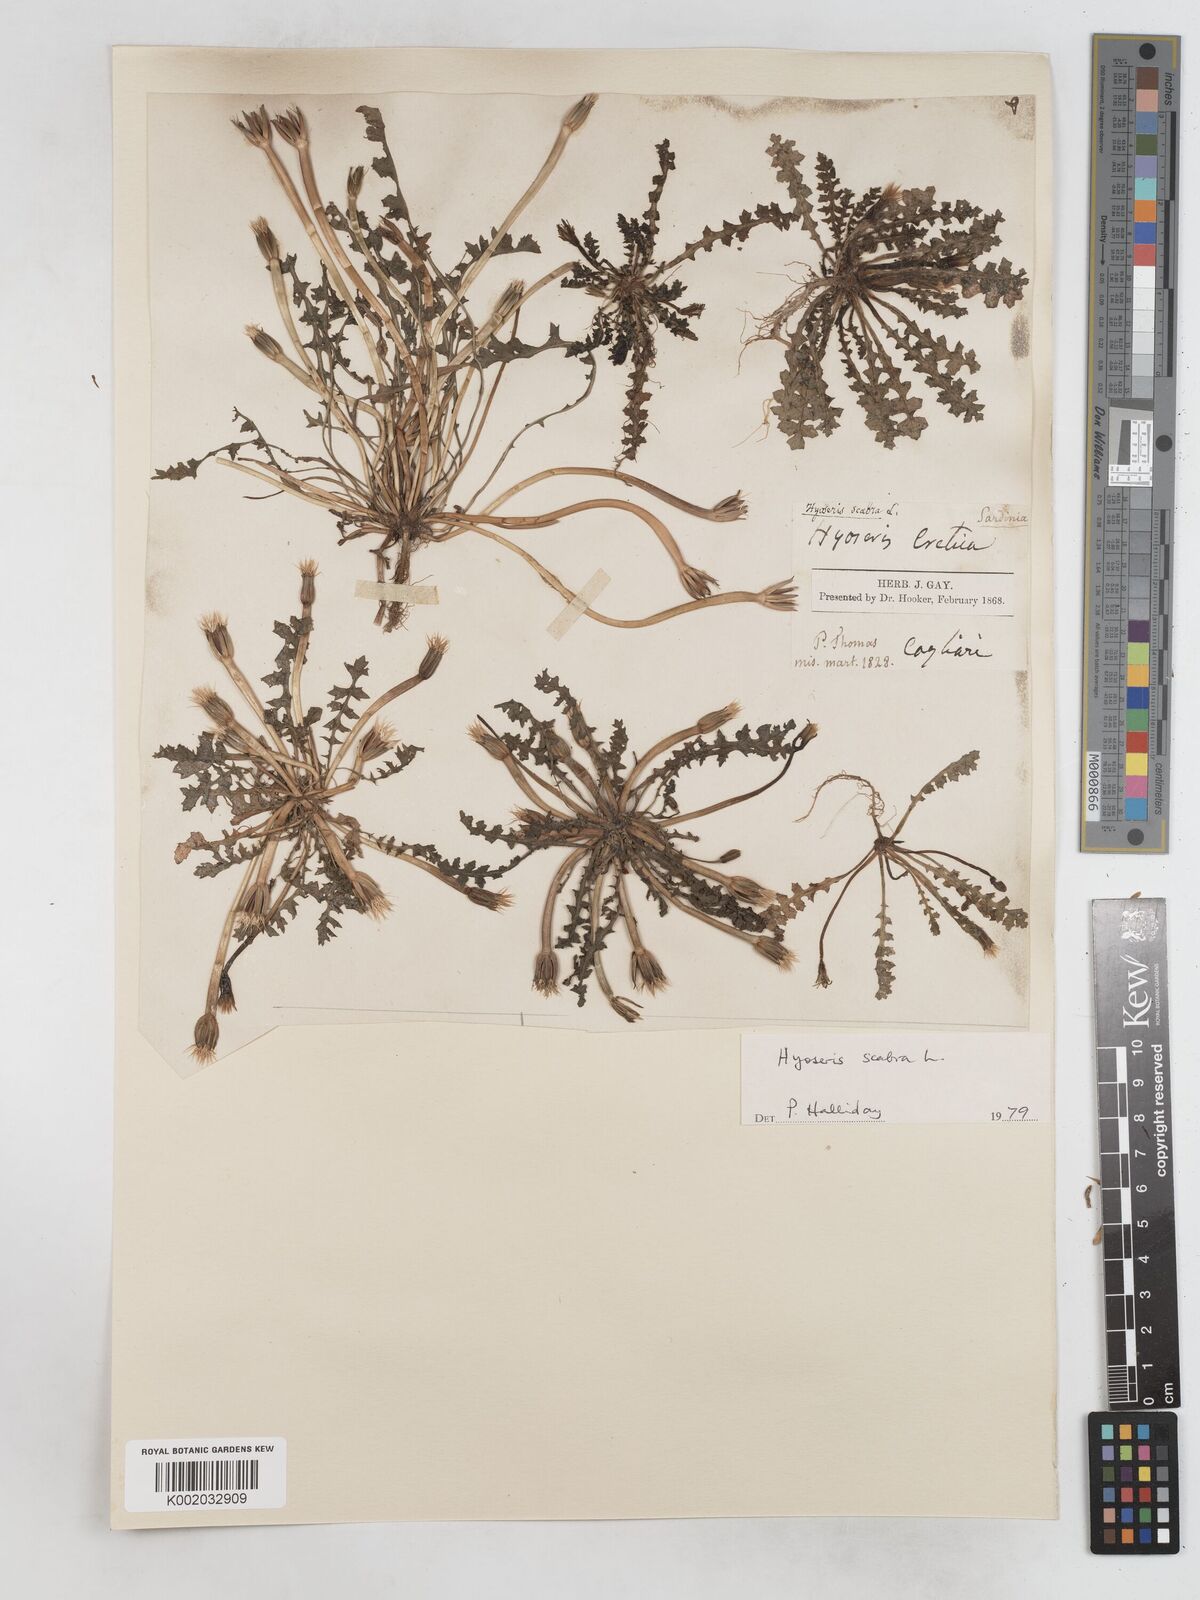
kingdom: Plantae
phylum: Tracheophyta
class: Magnoliopsida
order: Asterales
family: Asteraceae
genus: Hyoseris
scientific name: Hyoseris scabra
